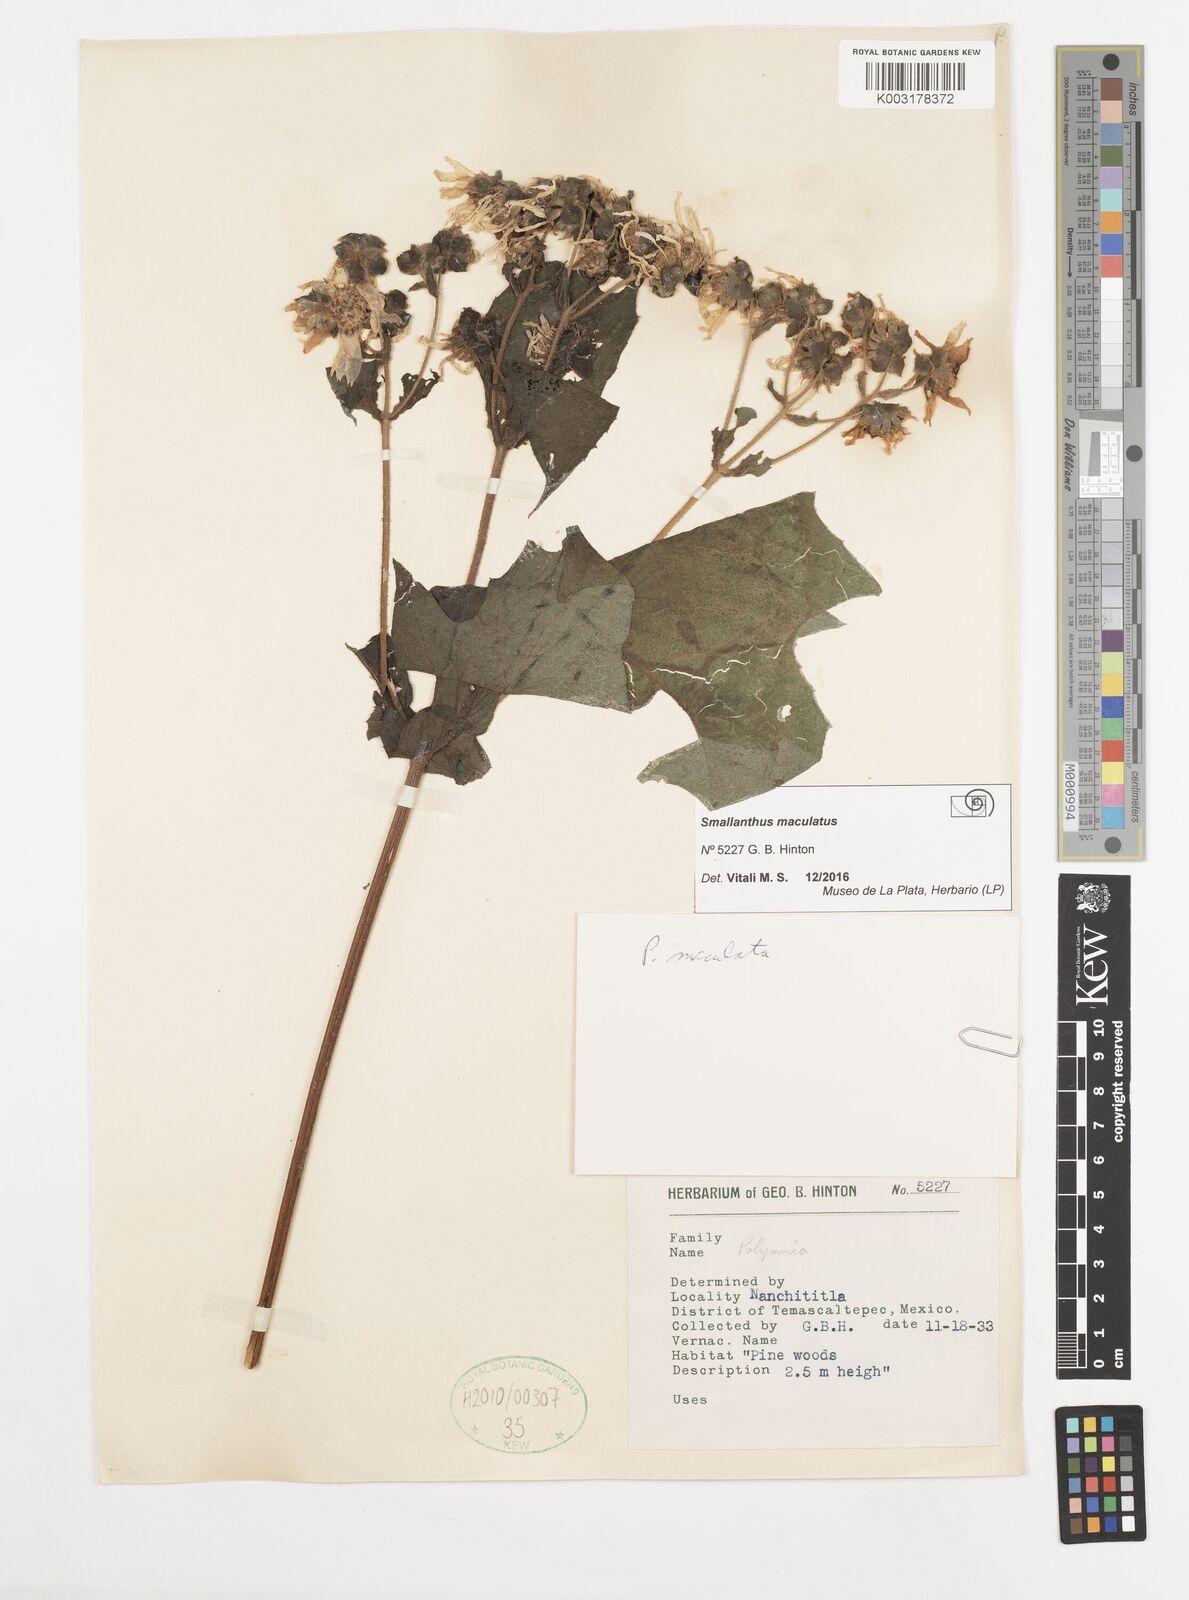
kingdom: Plantae
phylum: Tracheophyta
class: Magnoliopsida
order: Asterales
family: Asteraceae
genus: Smallanthus
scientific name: Smallanthus maculatus
